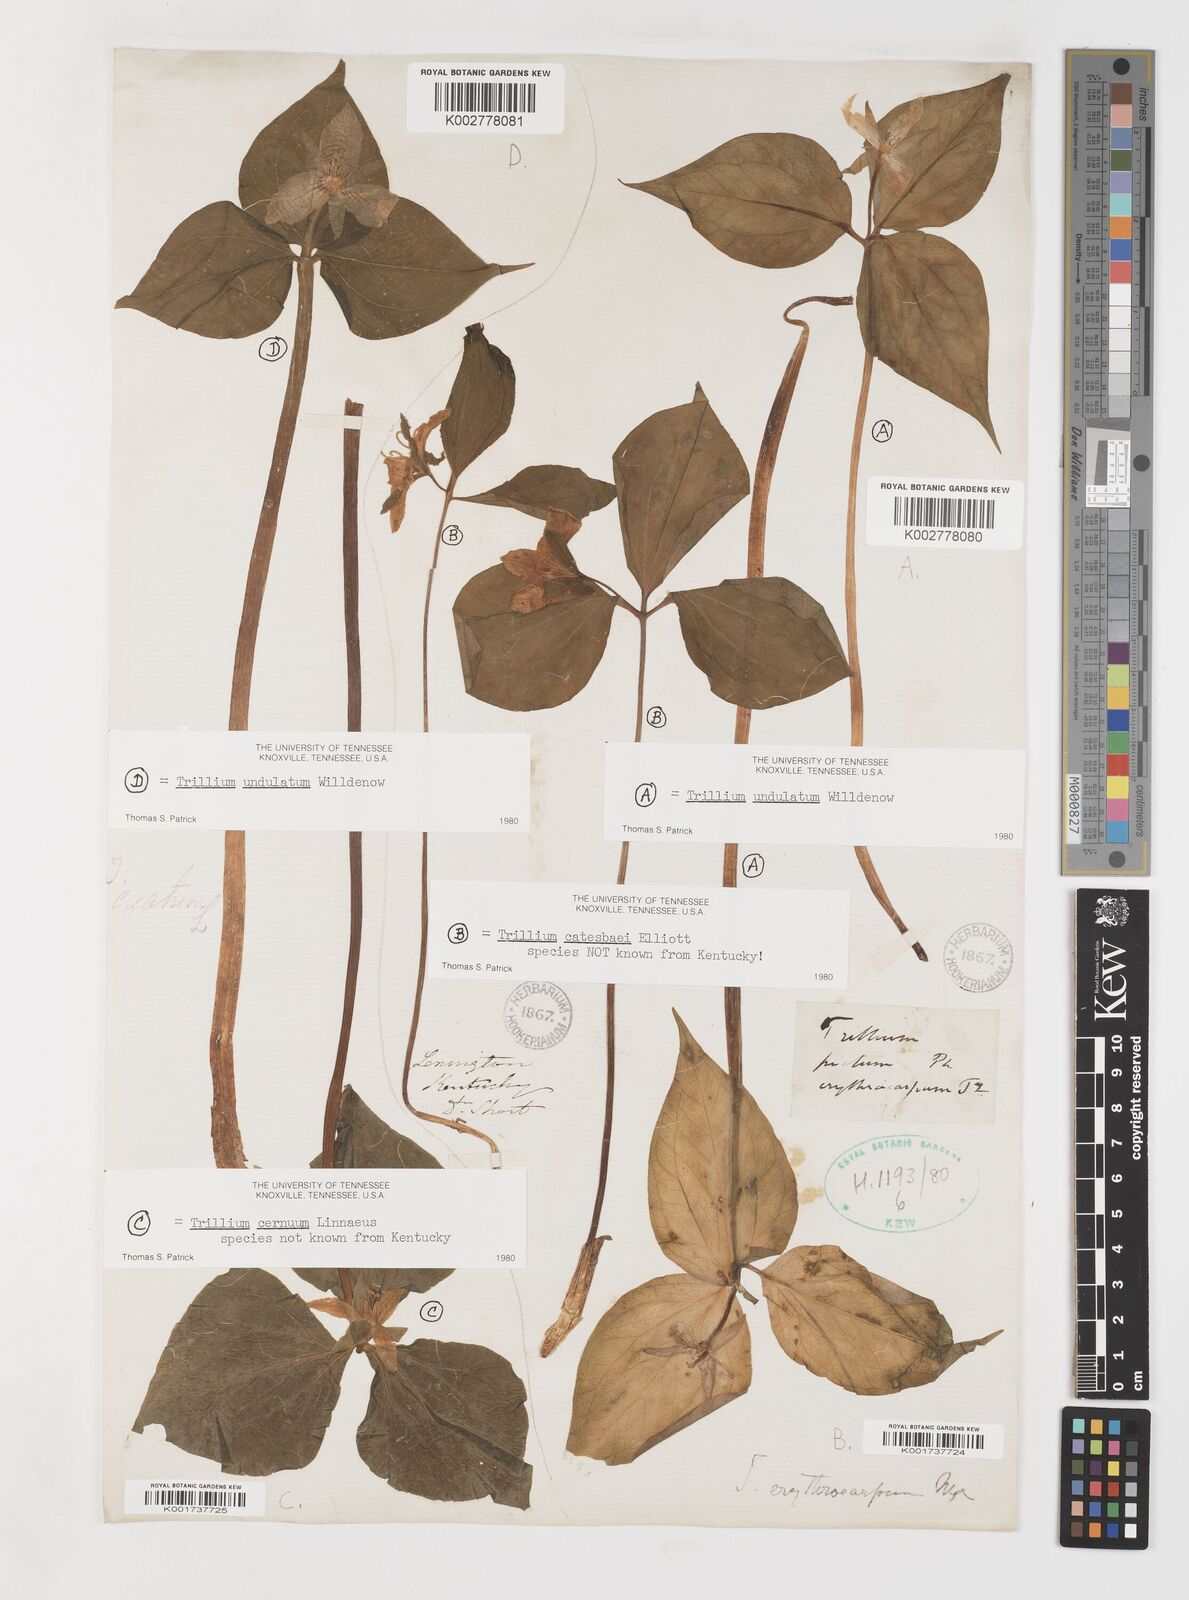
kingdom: Plantae
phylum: Tracheophyta
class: Liliopsida
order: Liliales
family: Melanthiaceae
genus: Trillium
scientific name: Trillium undulatum
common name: Paint trillium
